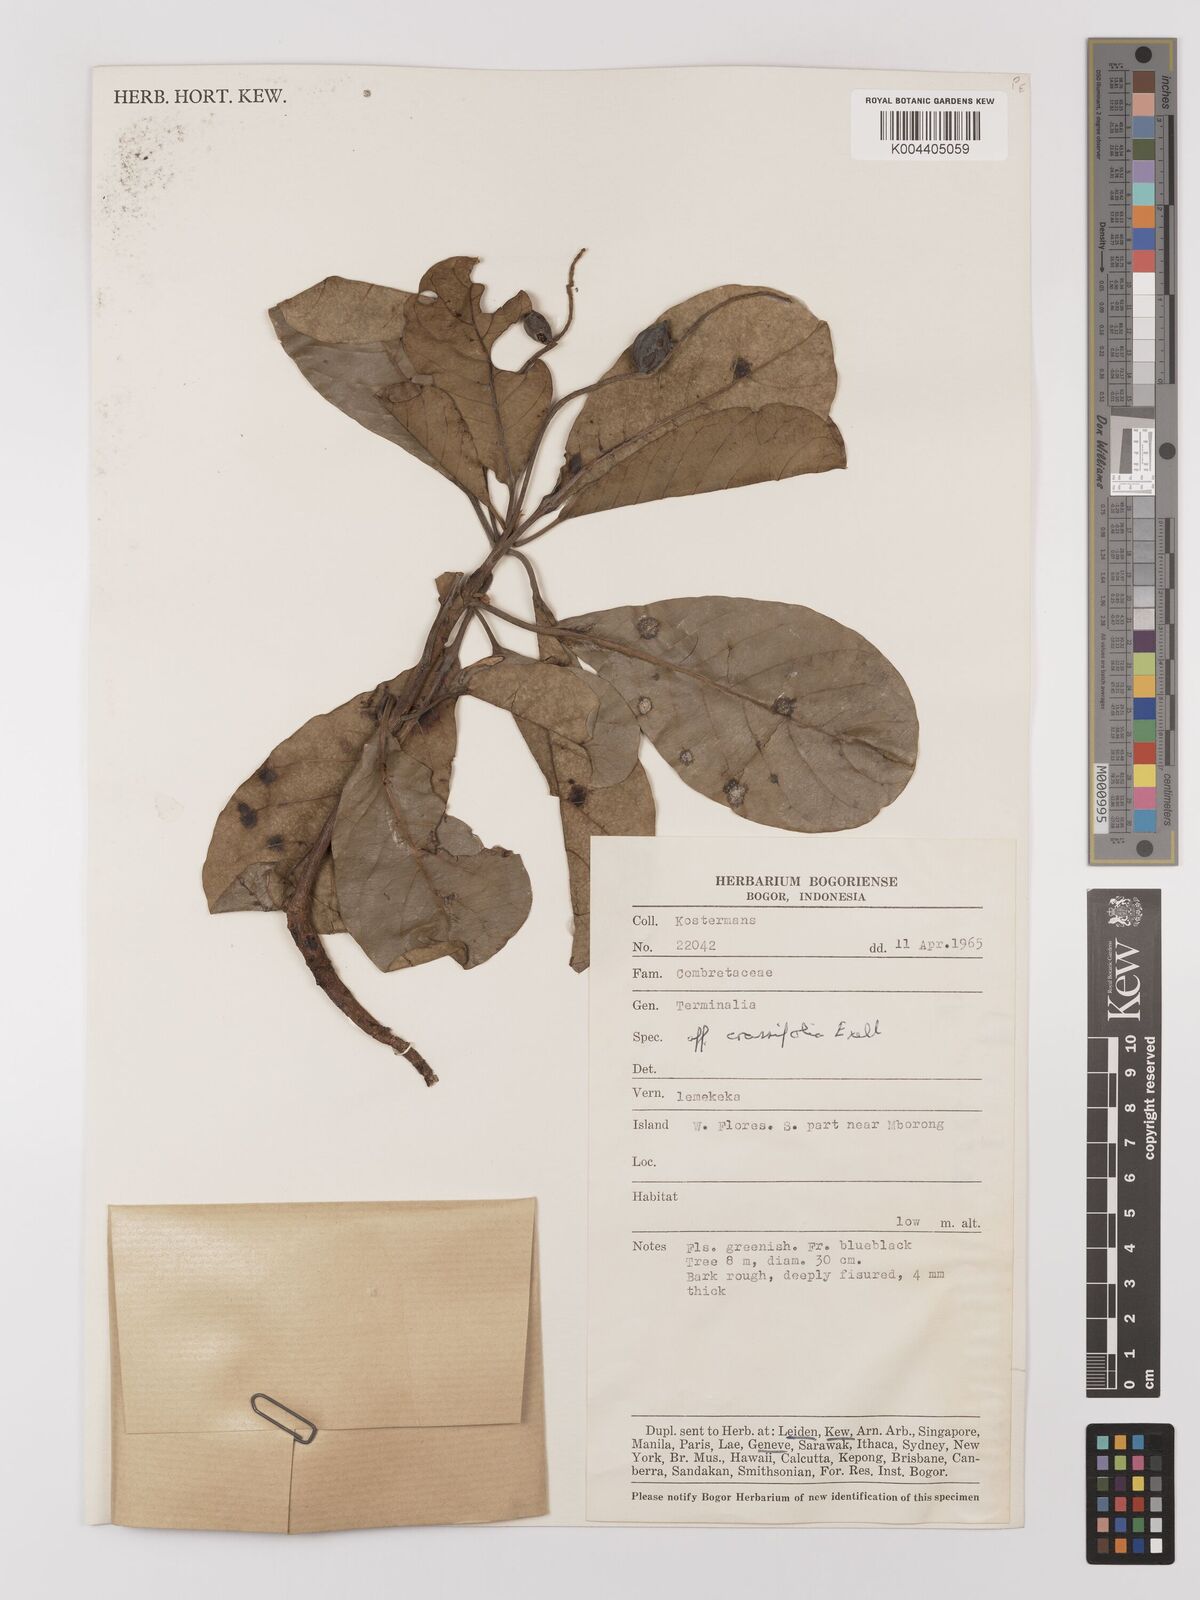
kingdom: Plantae
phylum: Tracheophyta
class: Magnoliopsida
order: Myrtales
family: Combretaceae
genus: Terminalia
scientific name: Terminalia crassifolia
